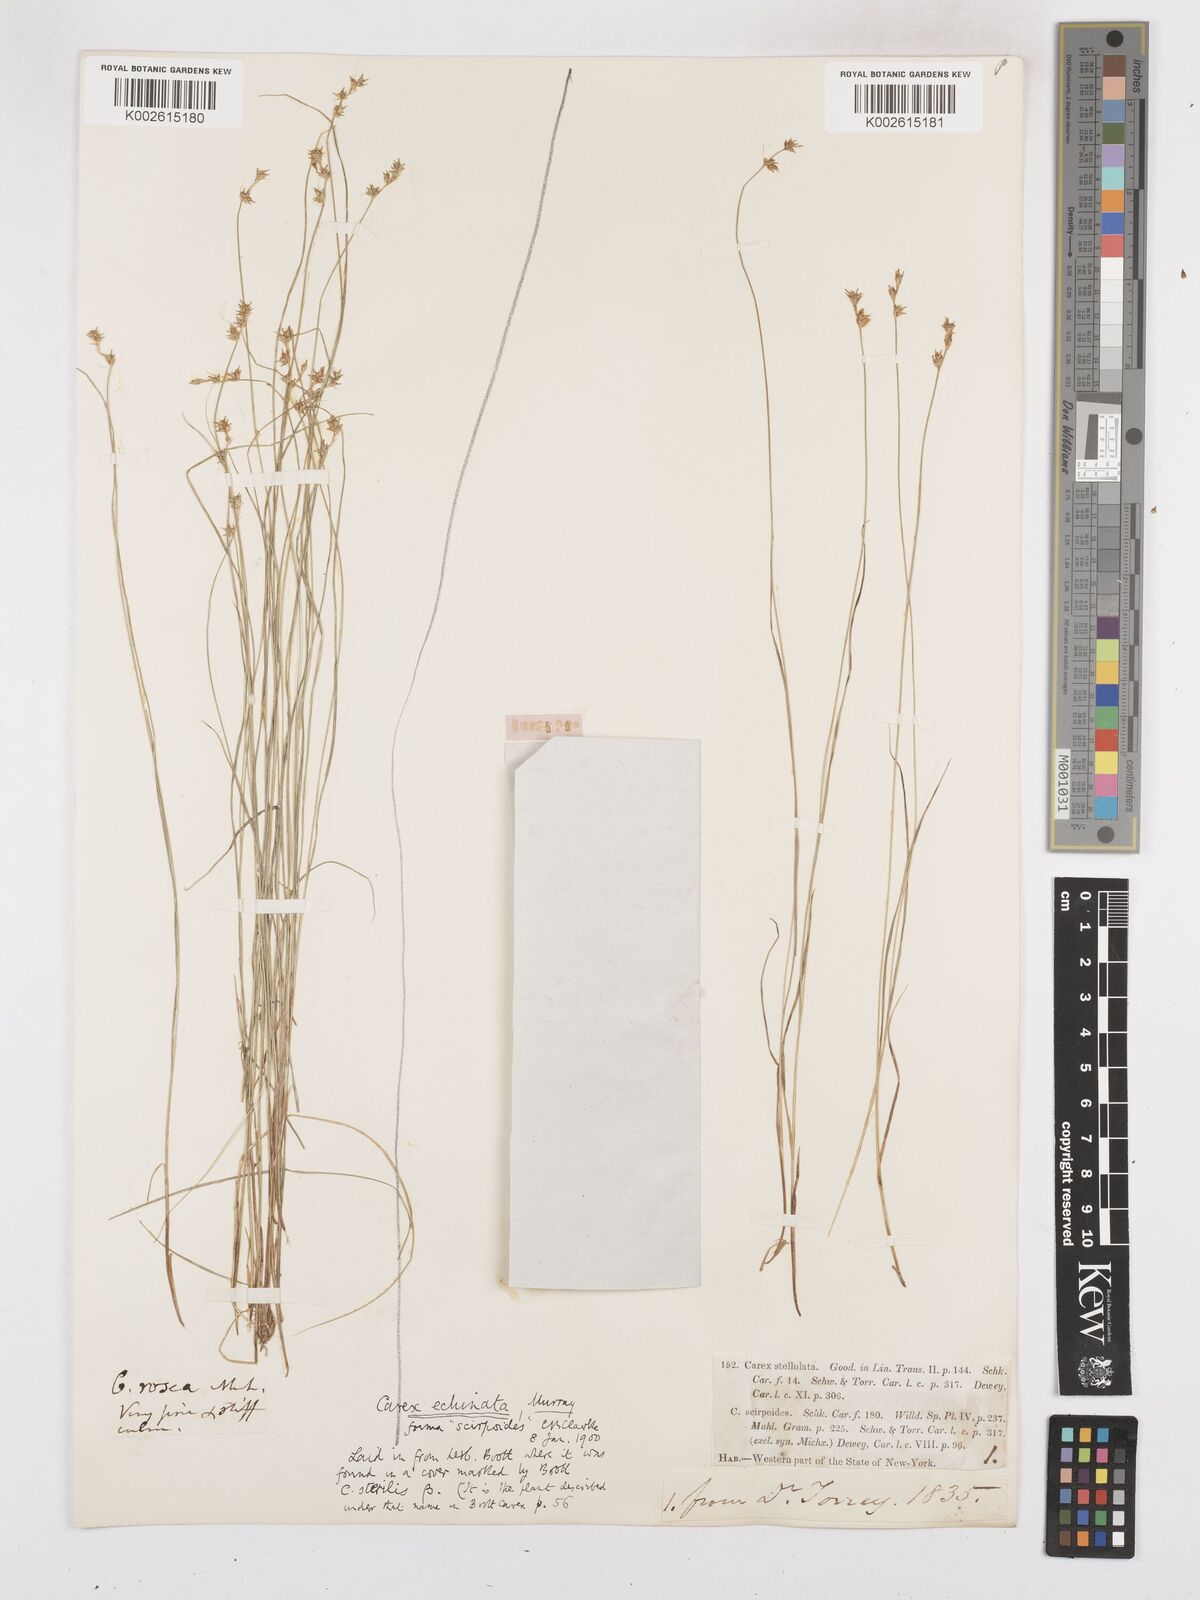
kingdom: Plantae
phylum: Tracheophyta
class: Liliopsida
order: Poales
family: Cyperaceae
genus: Carex
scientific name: Carex echinata
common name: Star sedge
